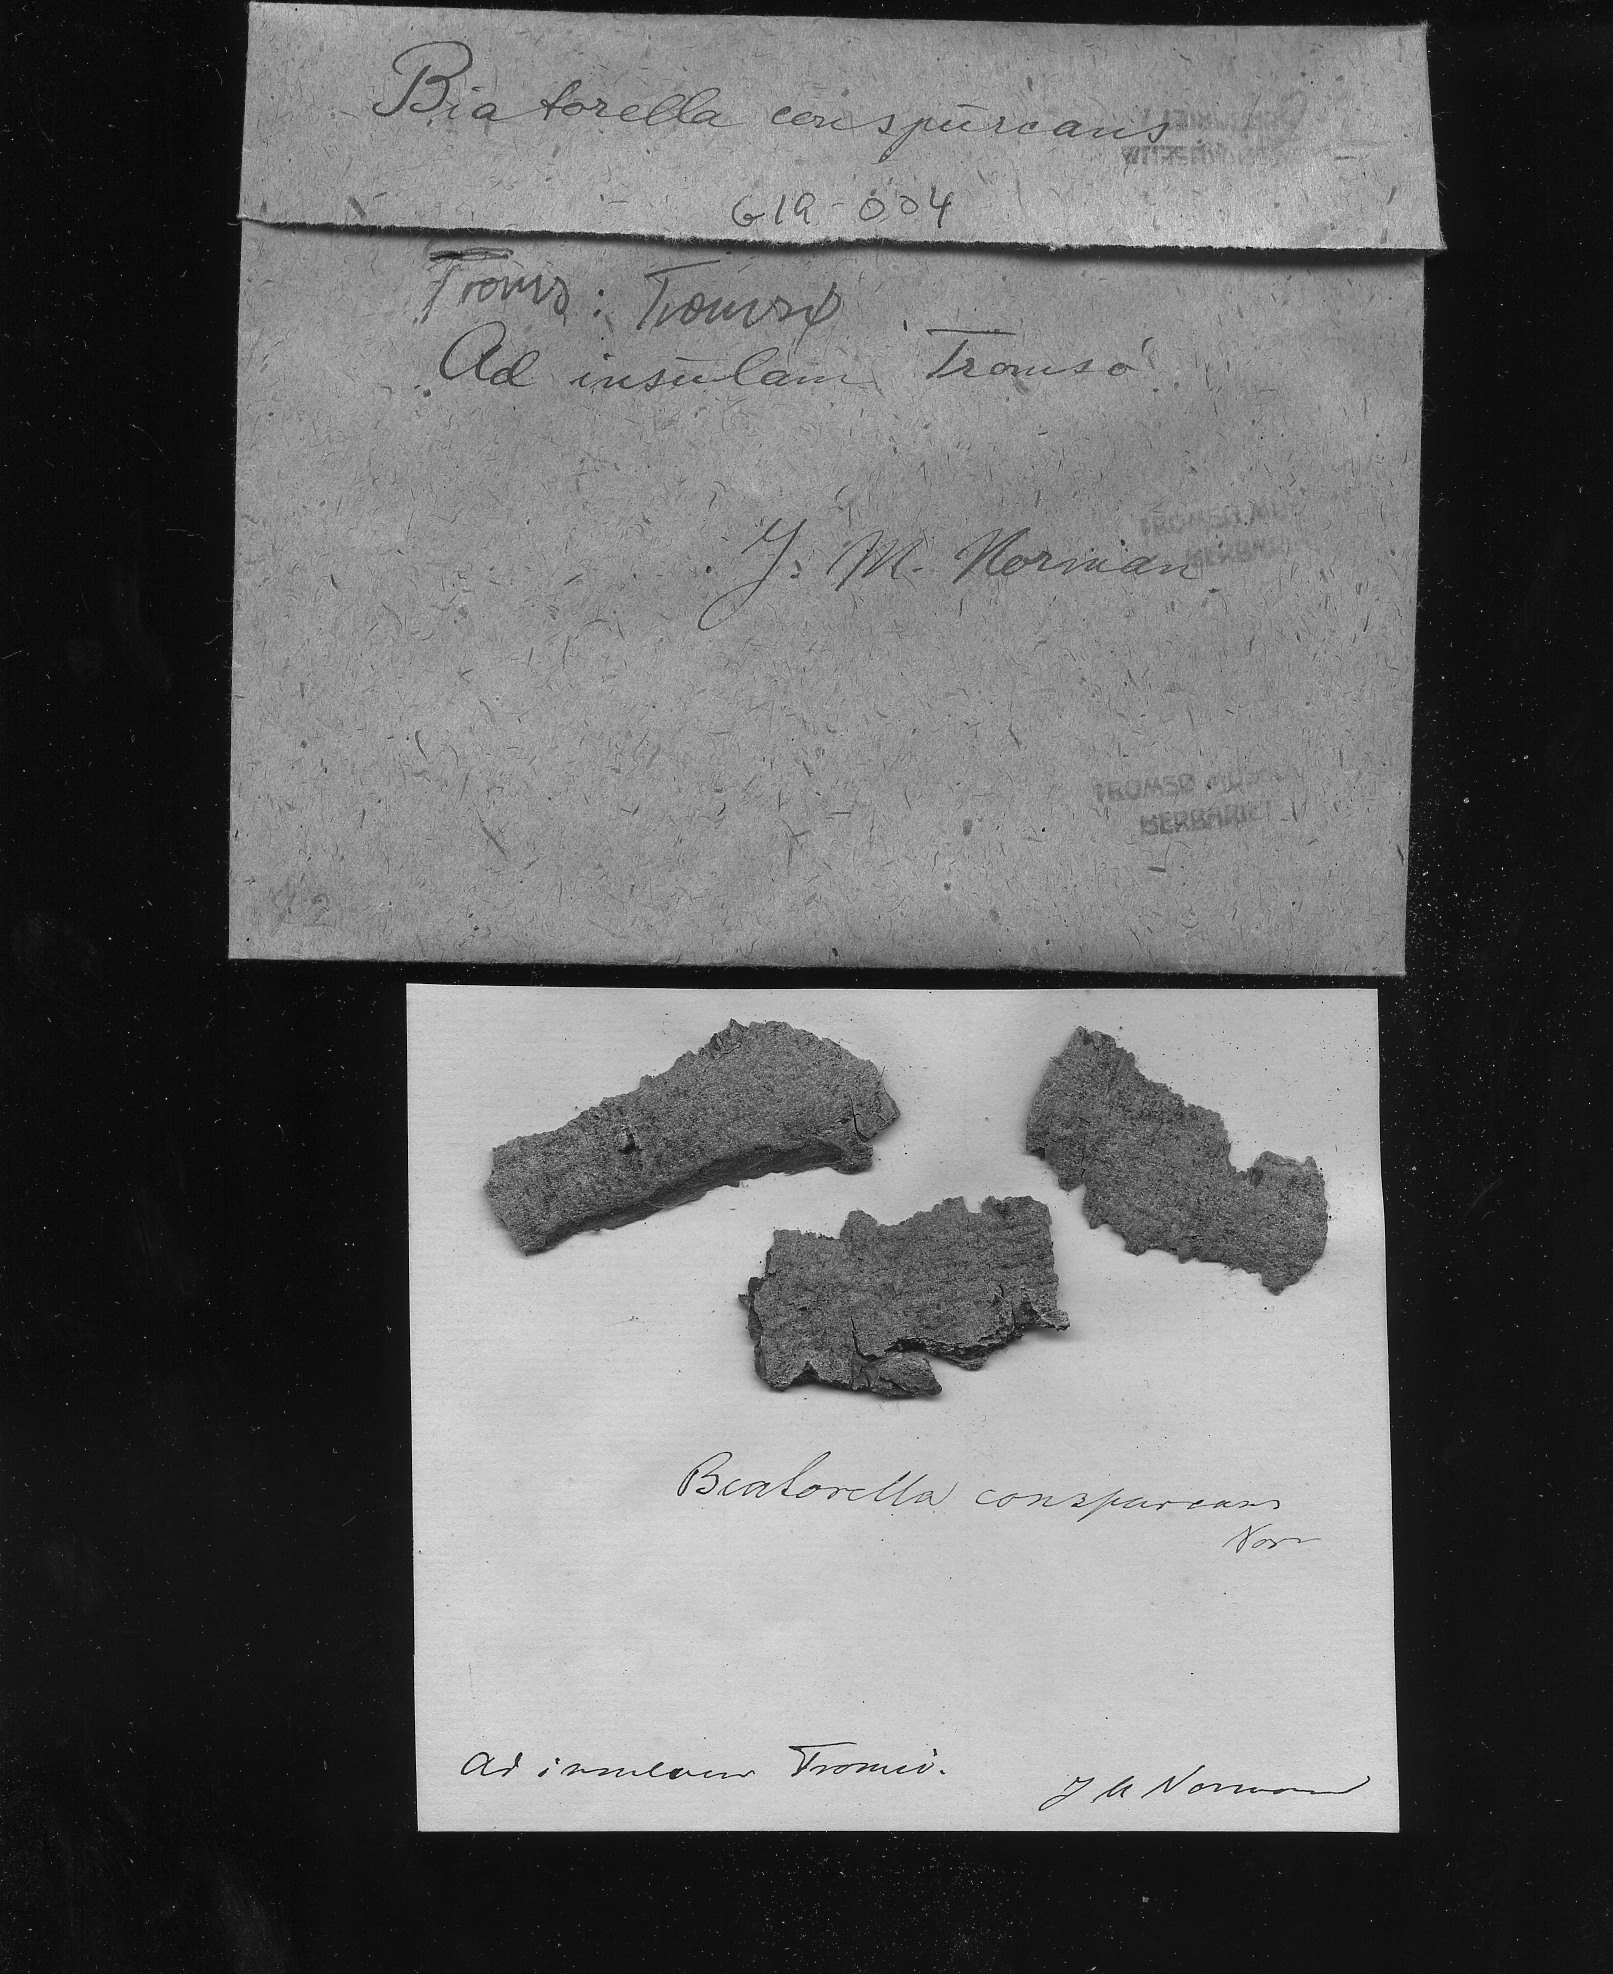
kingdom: Fungi
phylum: Ascomycota
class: Lecanoromycetes
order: Lecanorales
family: Biatorellaceae
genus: Biatorella
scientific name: Biatorella conspurcans
